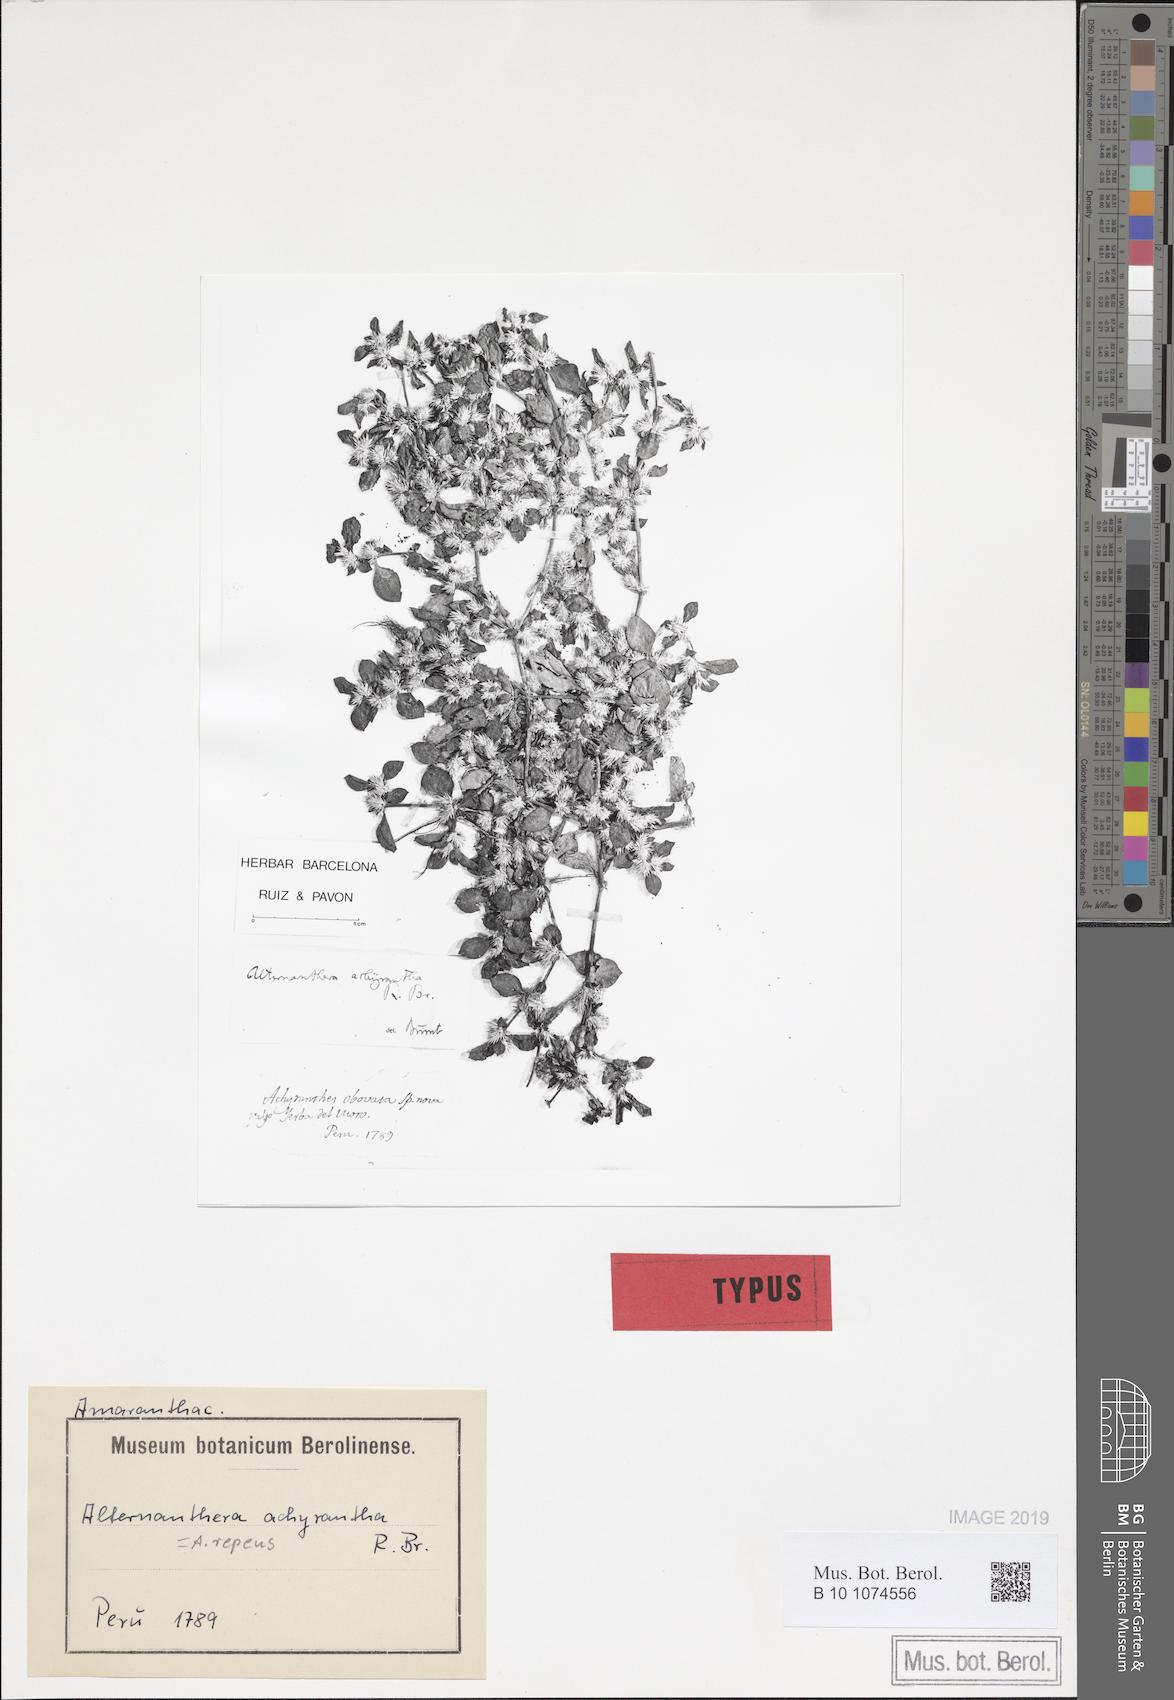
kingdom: Plantae
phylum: Tracheophyta
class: Magnoliopsida
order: Caryophyllales
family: Amaranthaceae
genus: Alternanthera
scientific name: Alternanthera pungens
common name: Khakiweed
